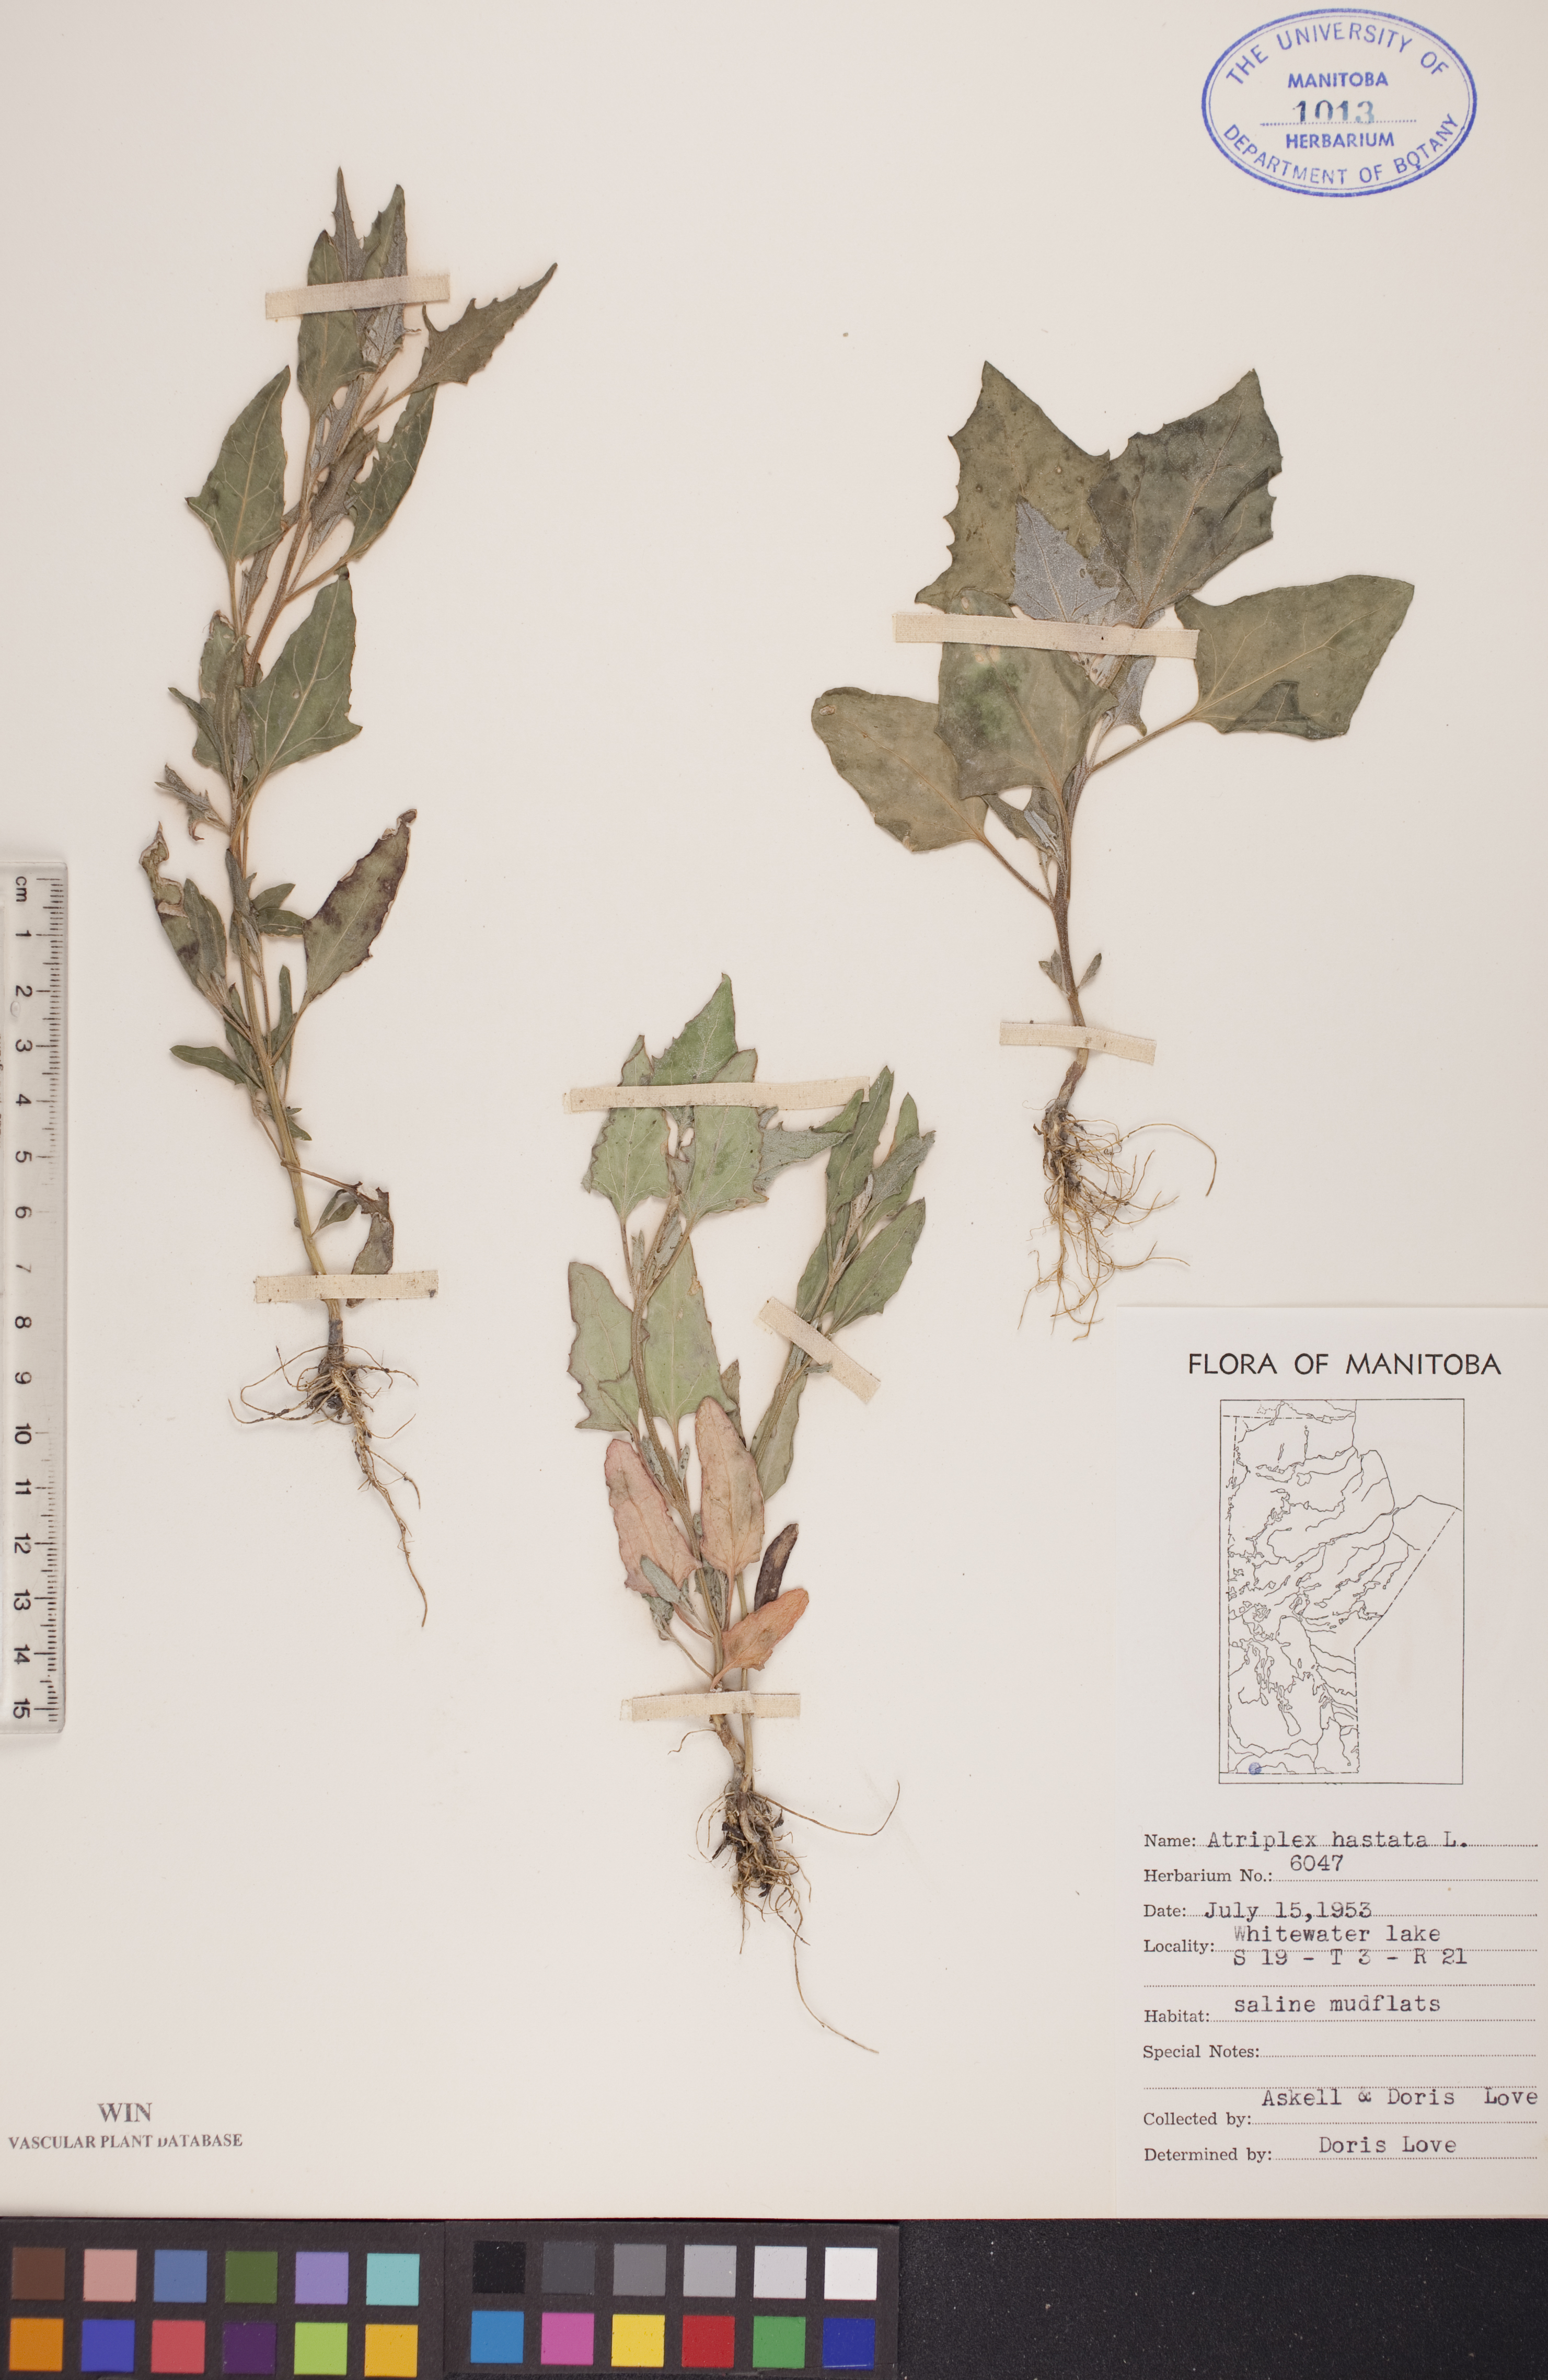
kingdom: Plantae
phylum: Tracheophyta
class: Magnoliopsida
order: Caryophyllales
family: Amaranthaceae
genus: Atriplex
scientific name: Atriplex
